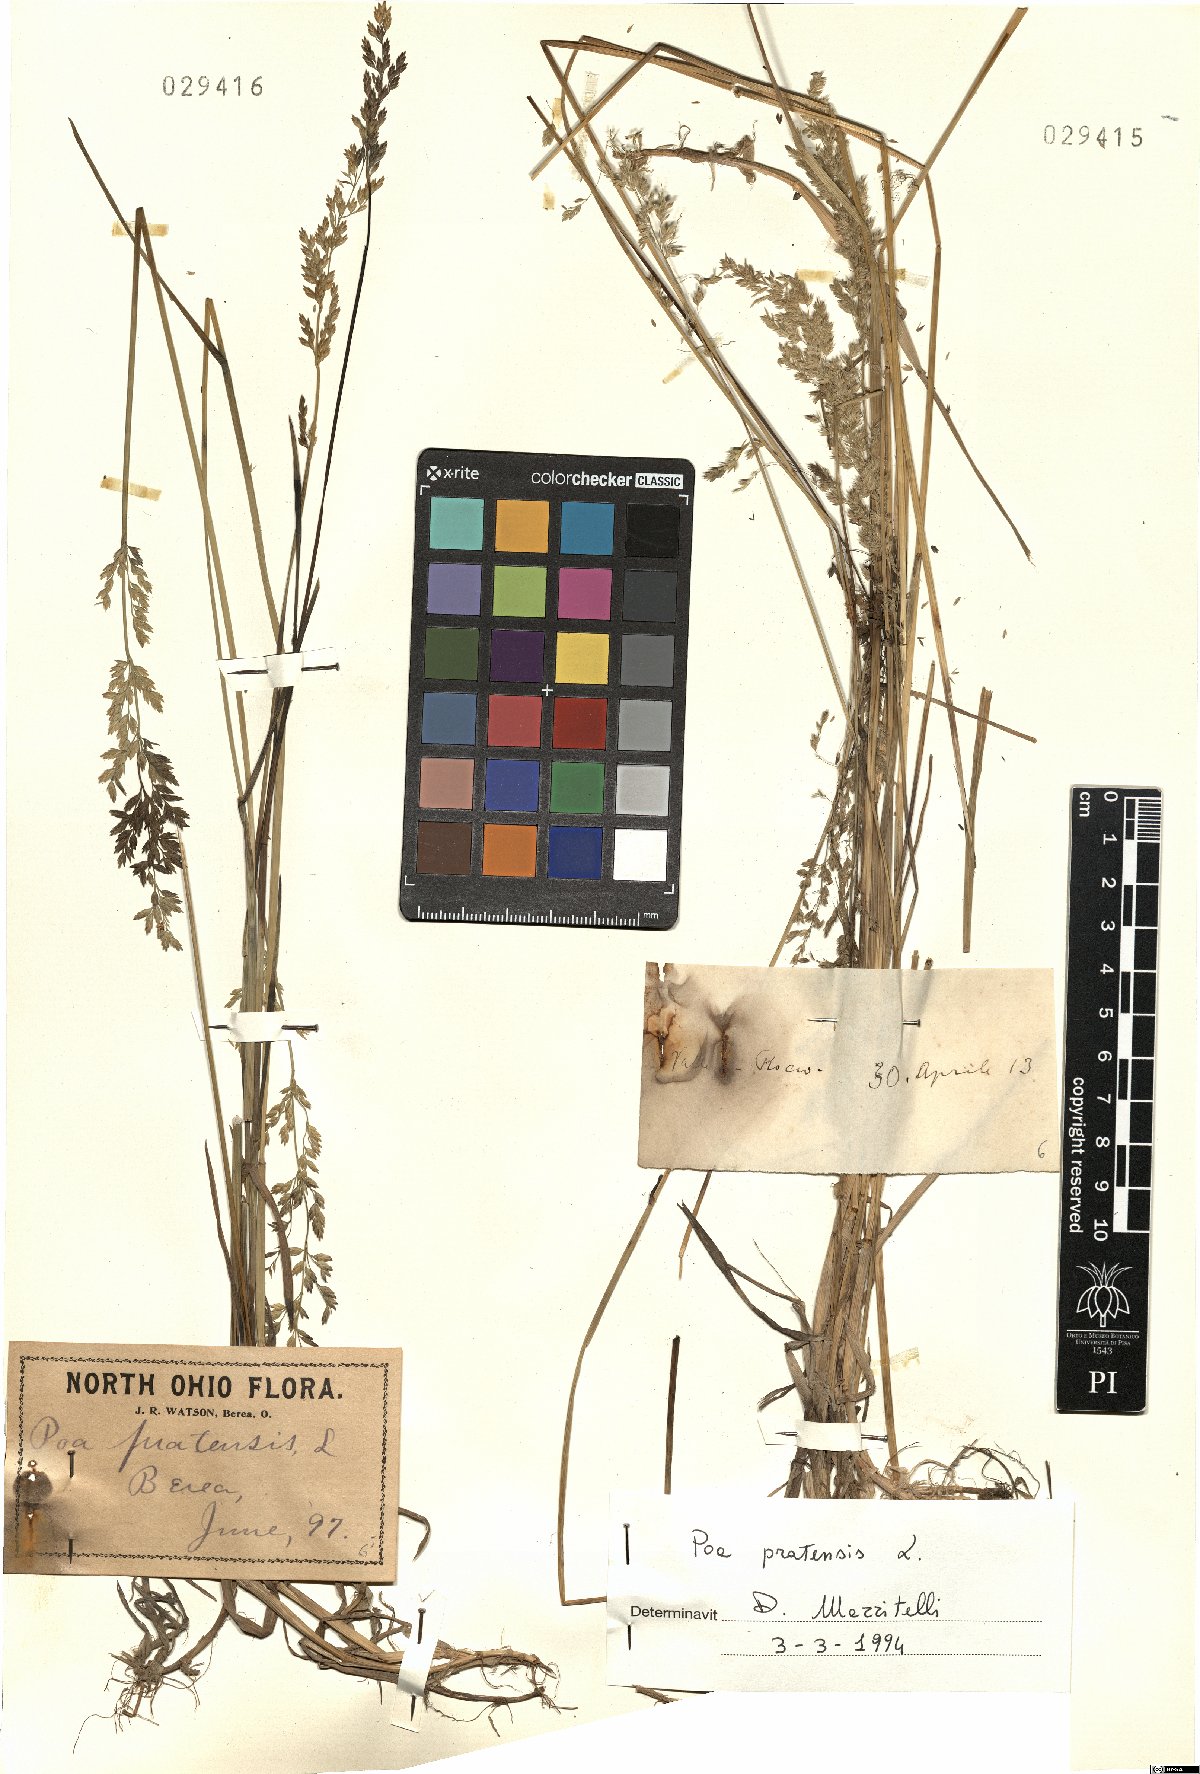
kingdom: Plantae
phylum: Tracheophyta
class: Liliopsida
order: Poales
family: Poaceae
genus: Poa
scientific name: Poa pratensis
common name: Kentucky bluegrass
